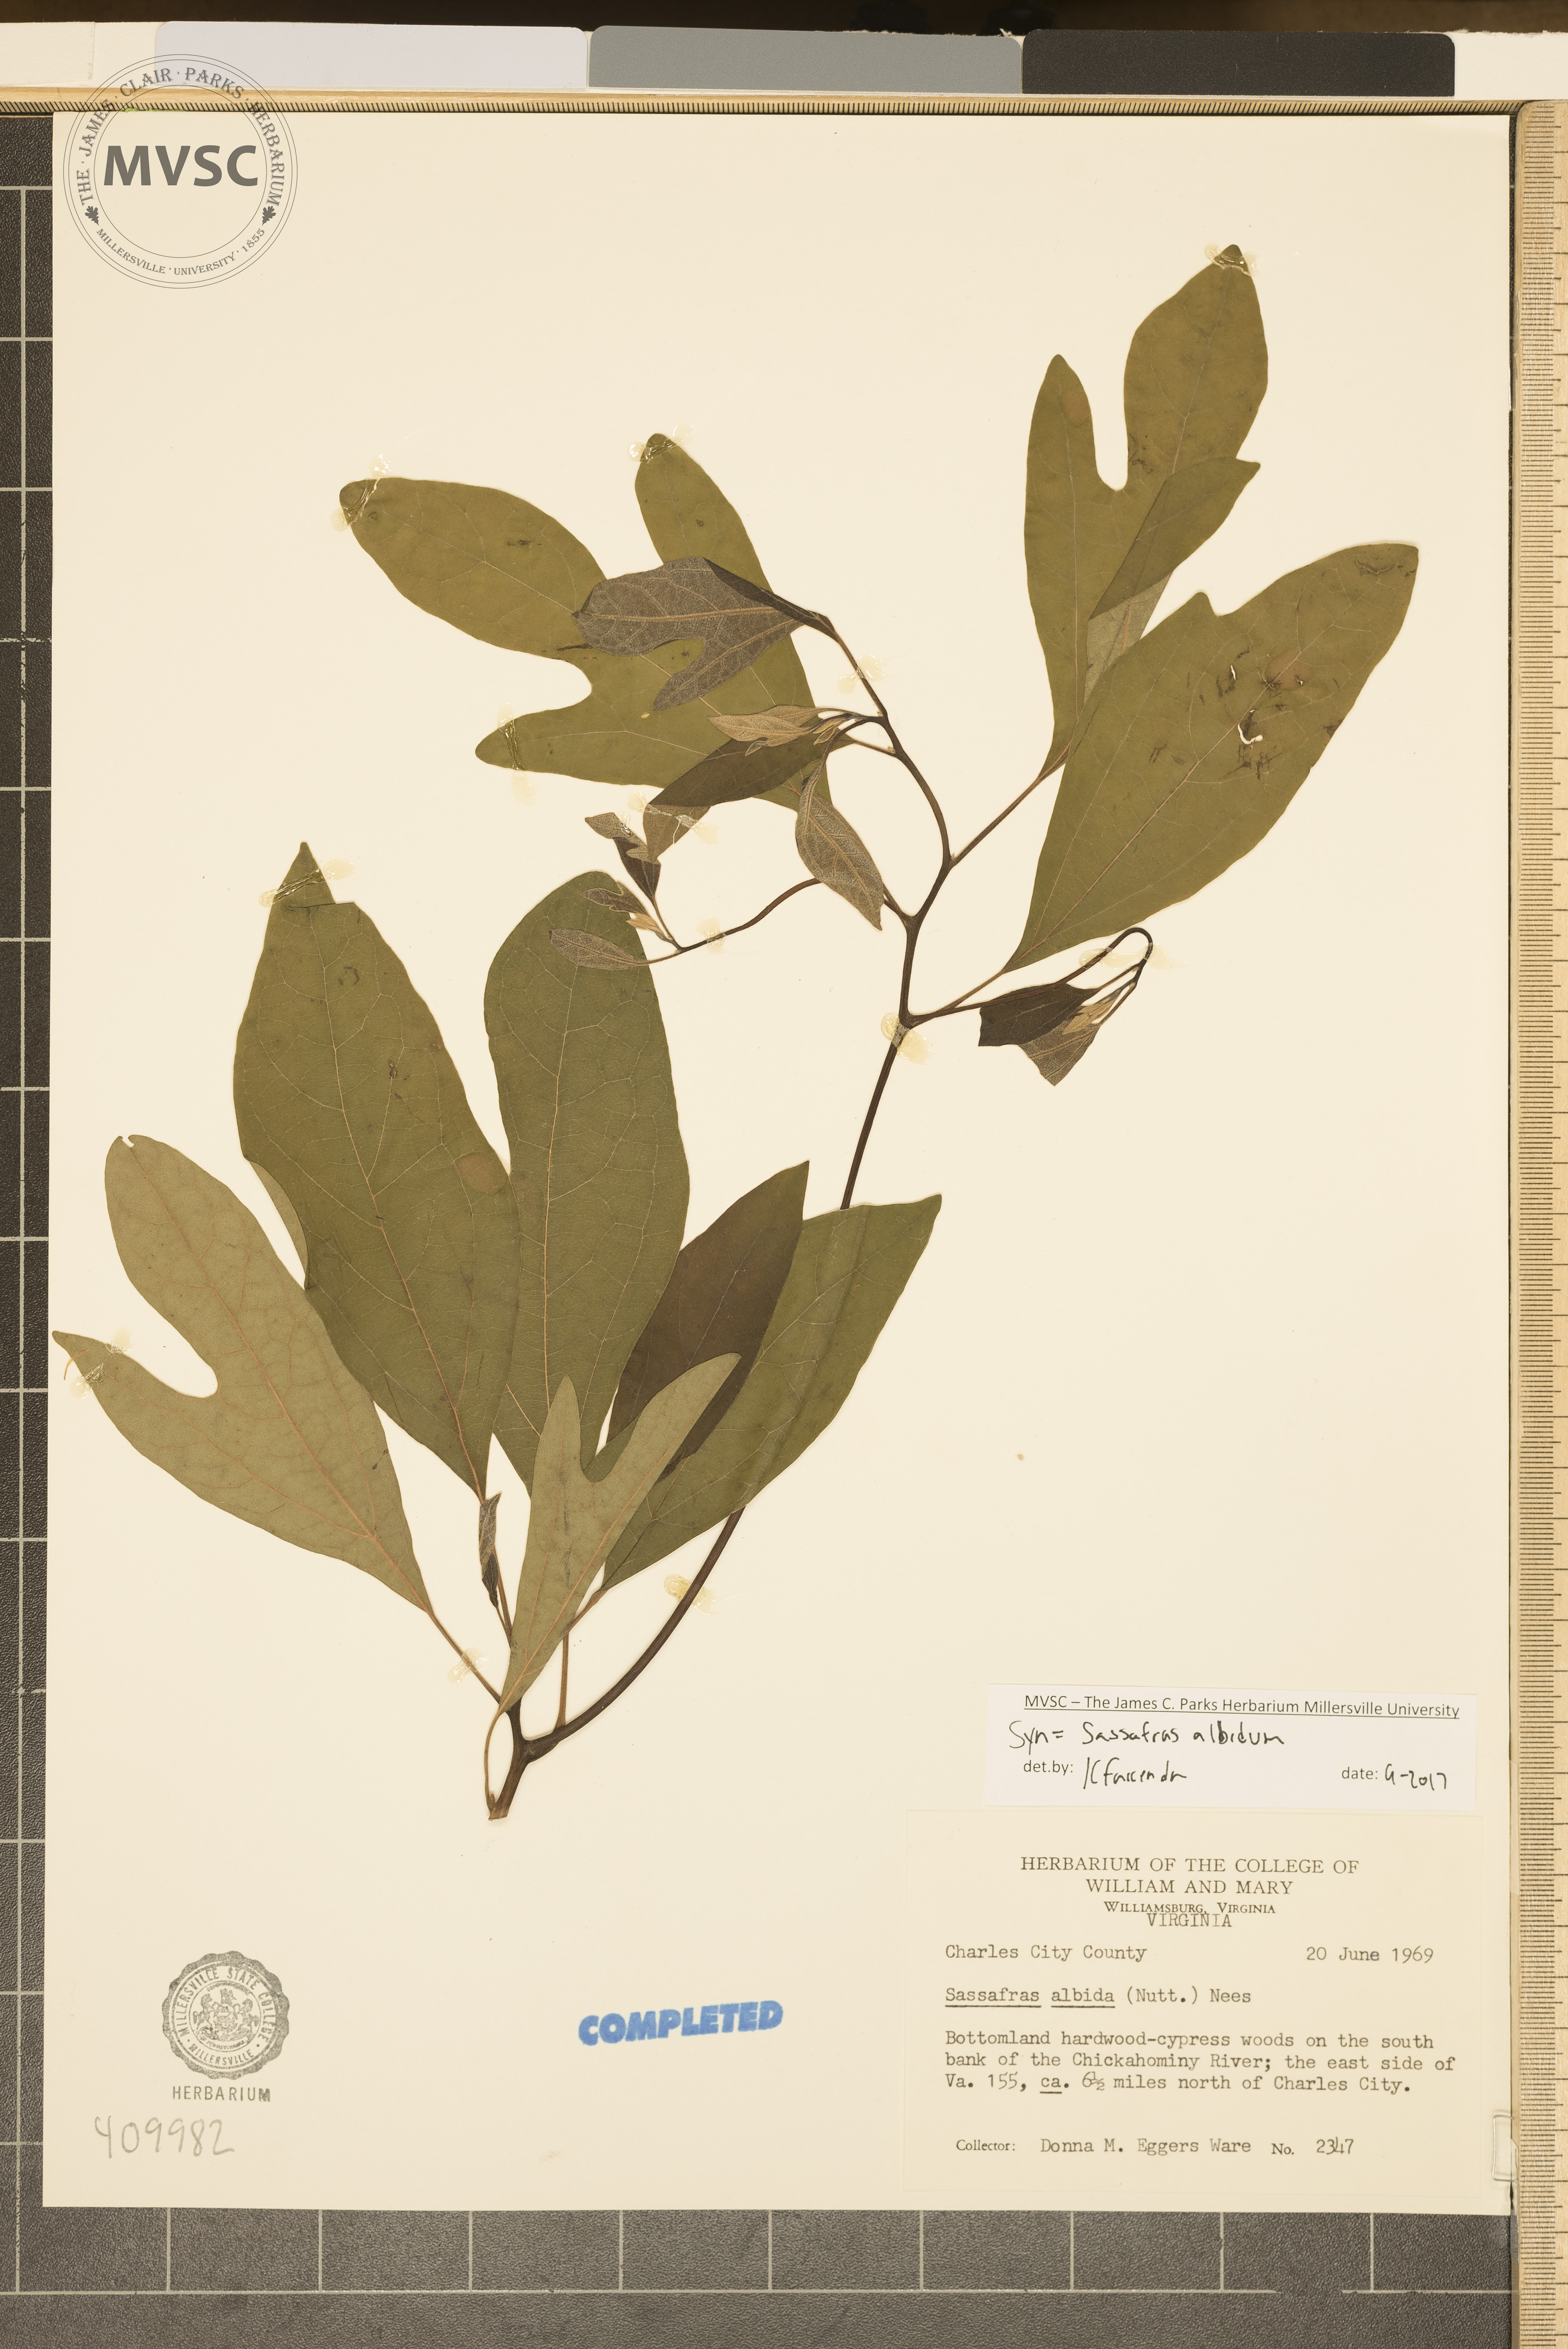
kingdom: Plantae
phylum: Tracheophyta
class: Magnoliopsida
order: Laurales
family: Lauraceae
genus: Sassafras
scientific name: Sassafras albidum
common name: Sassafras
